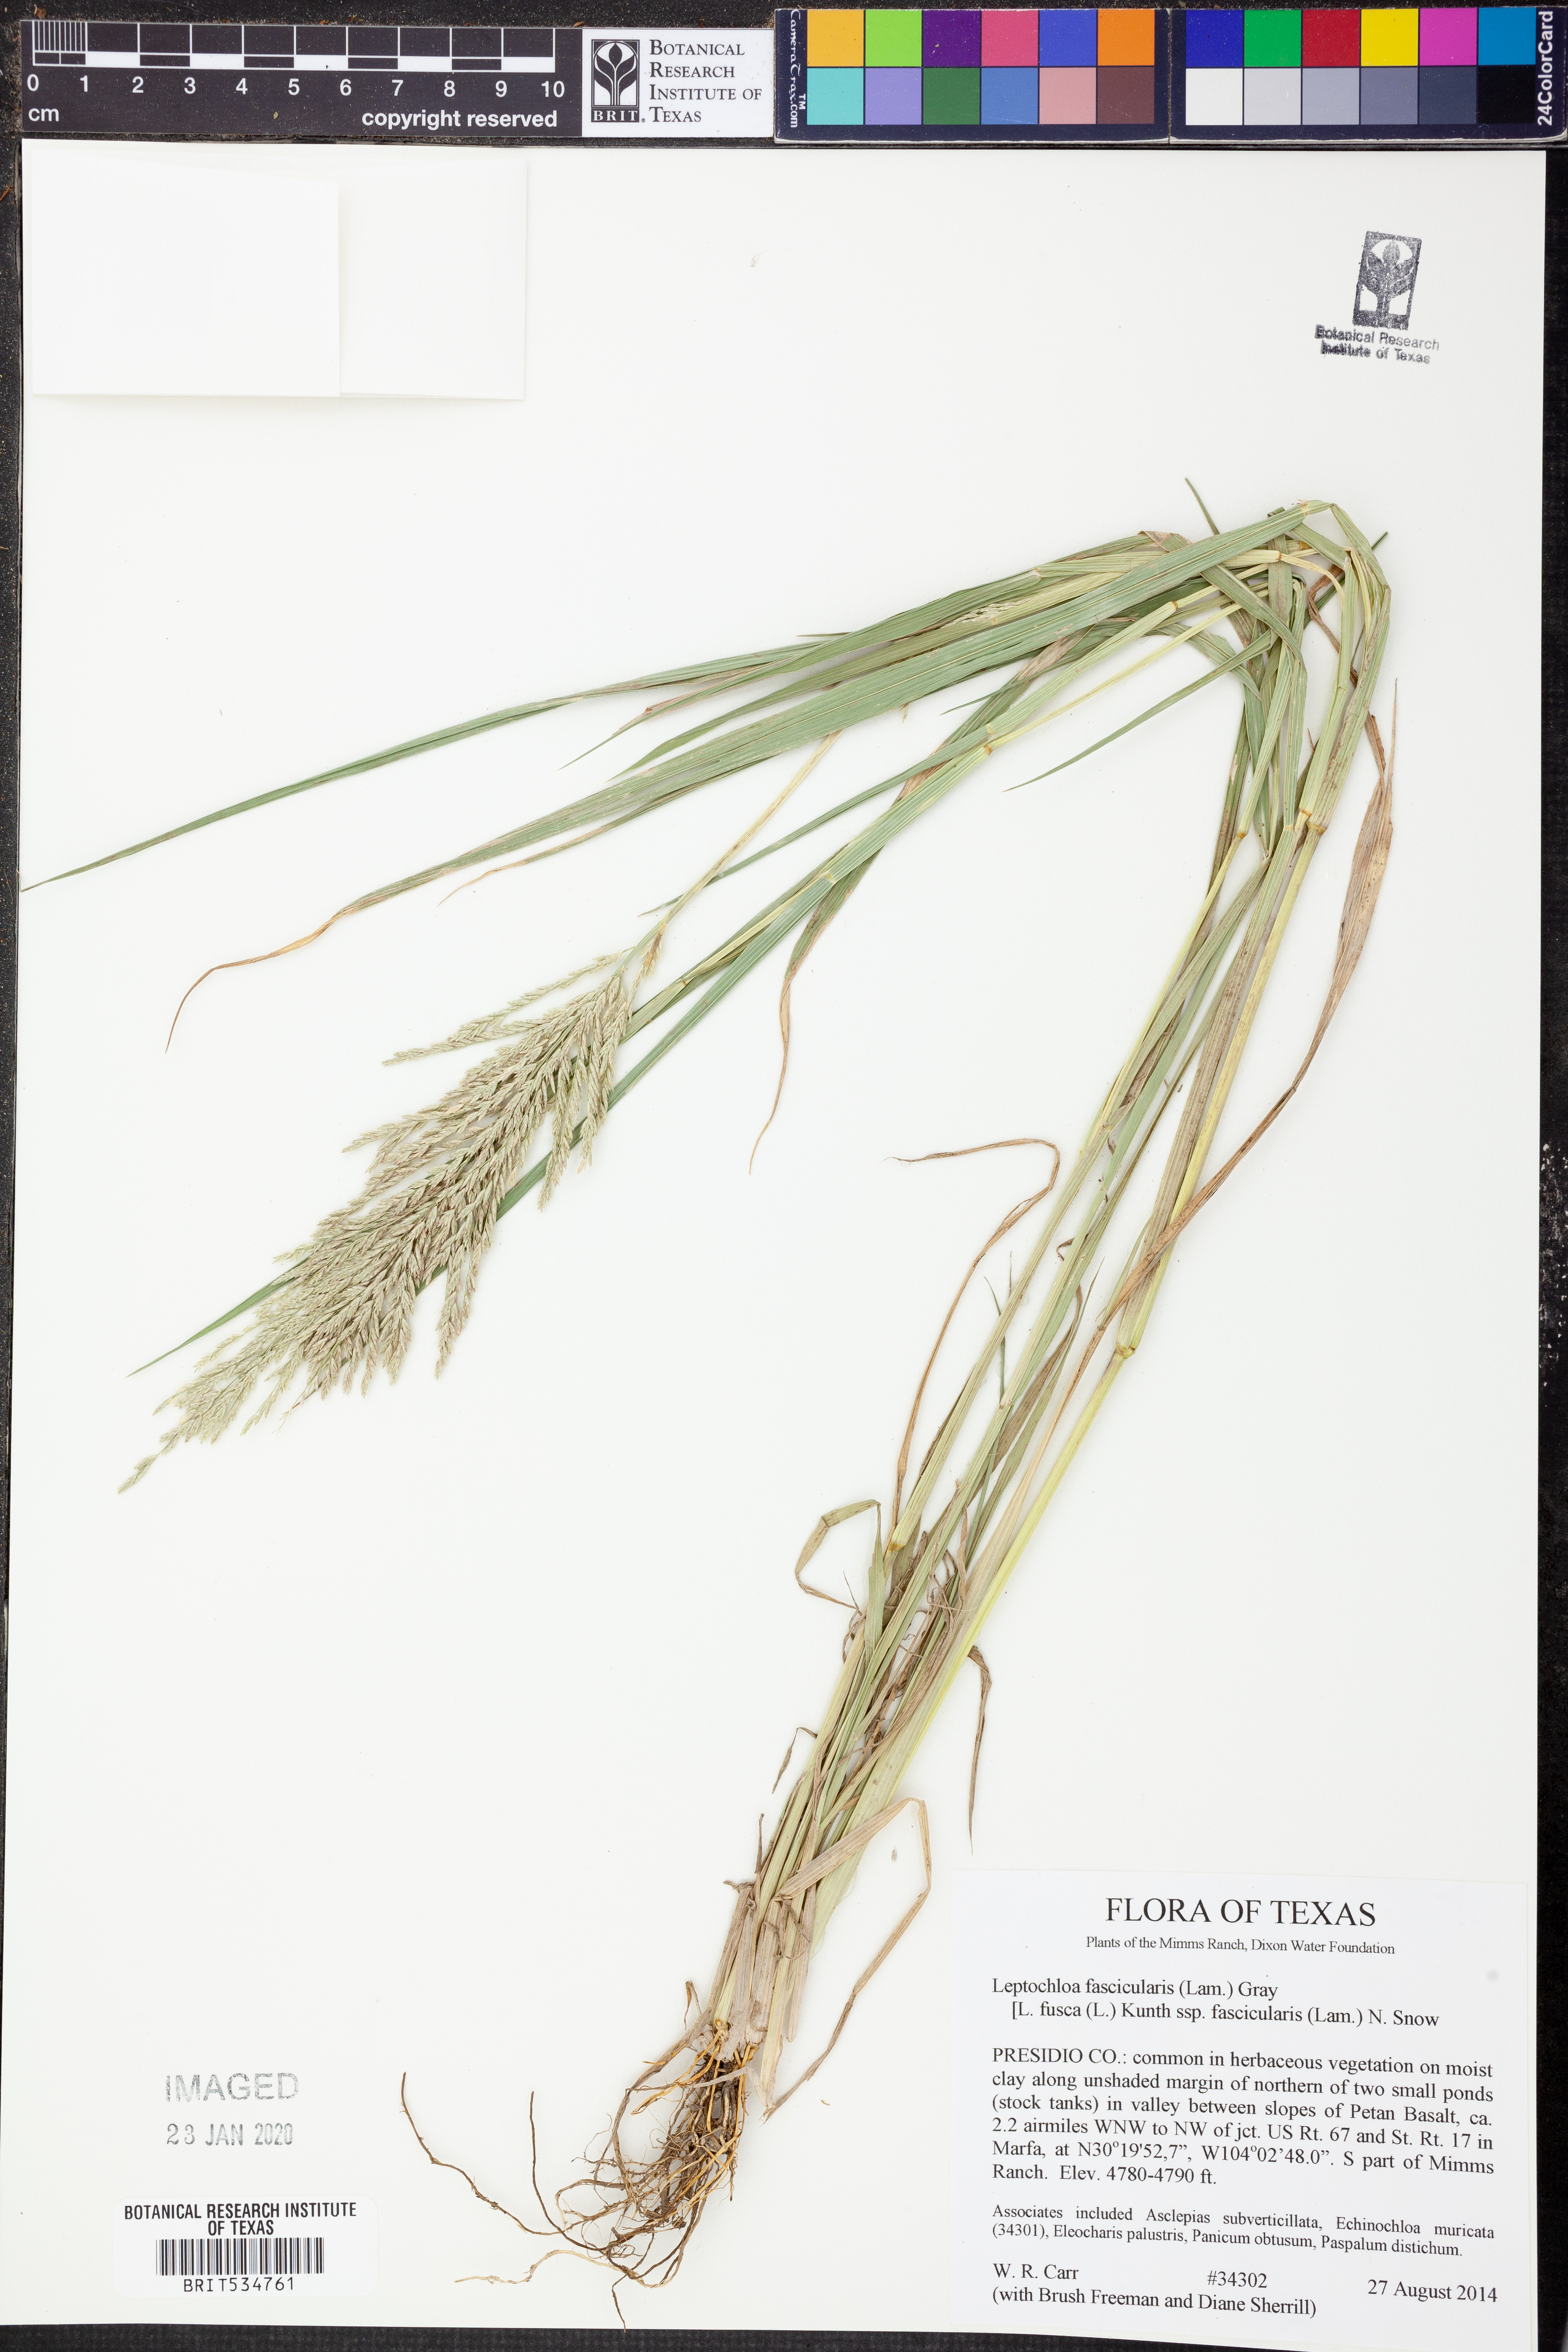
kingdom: Plantae
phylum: Tracheophyta
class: Liliopsida
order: Poales
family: Poaceae
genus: Diplachne
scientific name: Diplachne fusca
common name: Brown beetle grass
